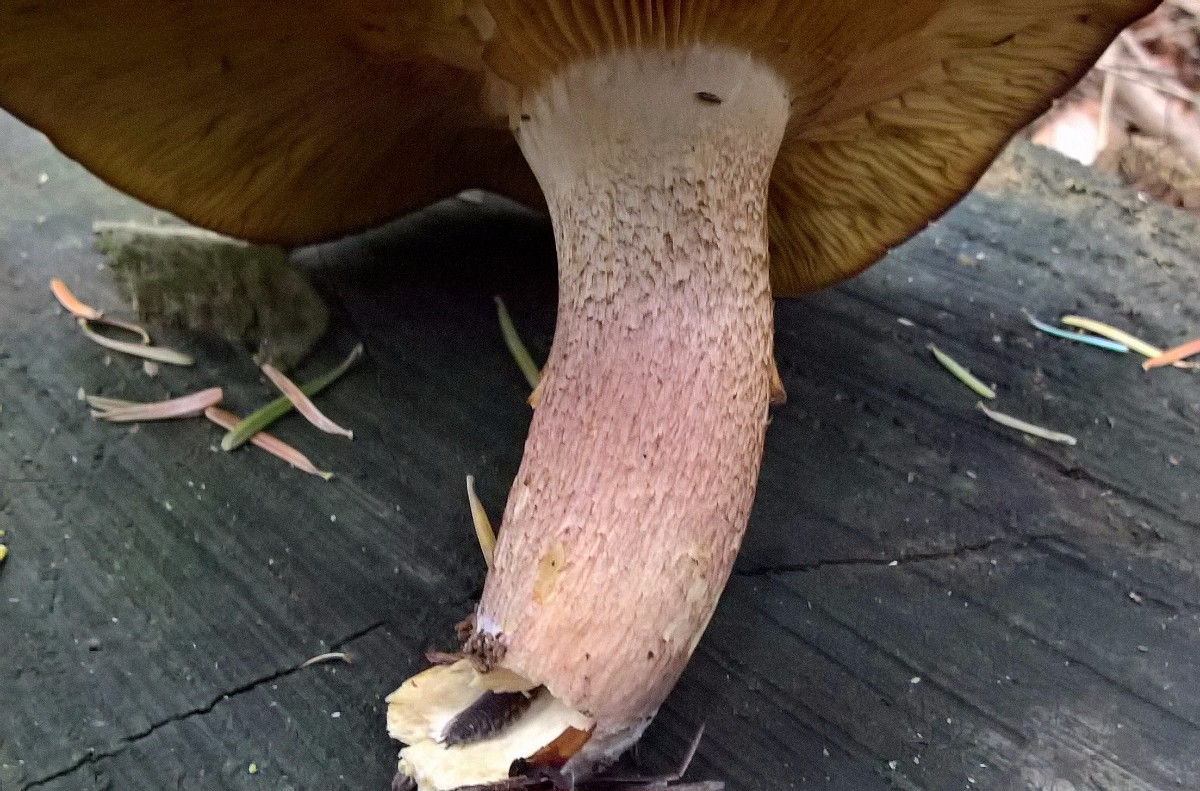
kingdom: Fungi
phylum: Basidiomycota
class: Agaricomycetes
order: Agaricales
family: Tricholomataceae
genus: Tricholomopsis
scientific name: Tricholomopsis rutilans
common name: purpur-væbnerhat
